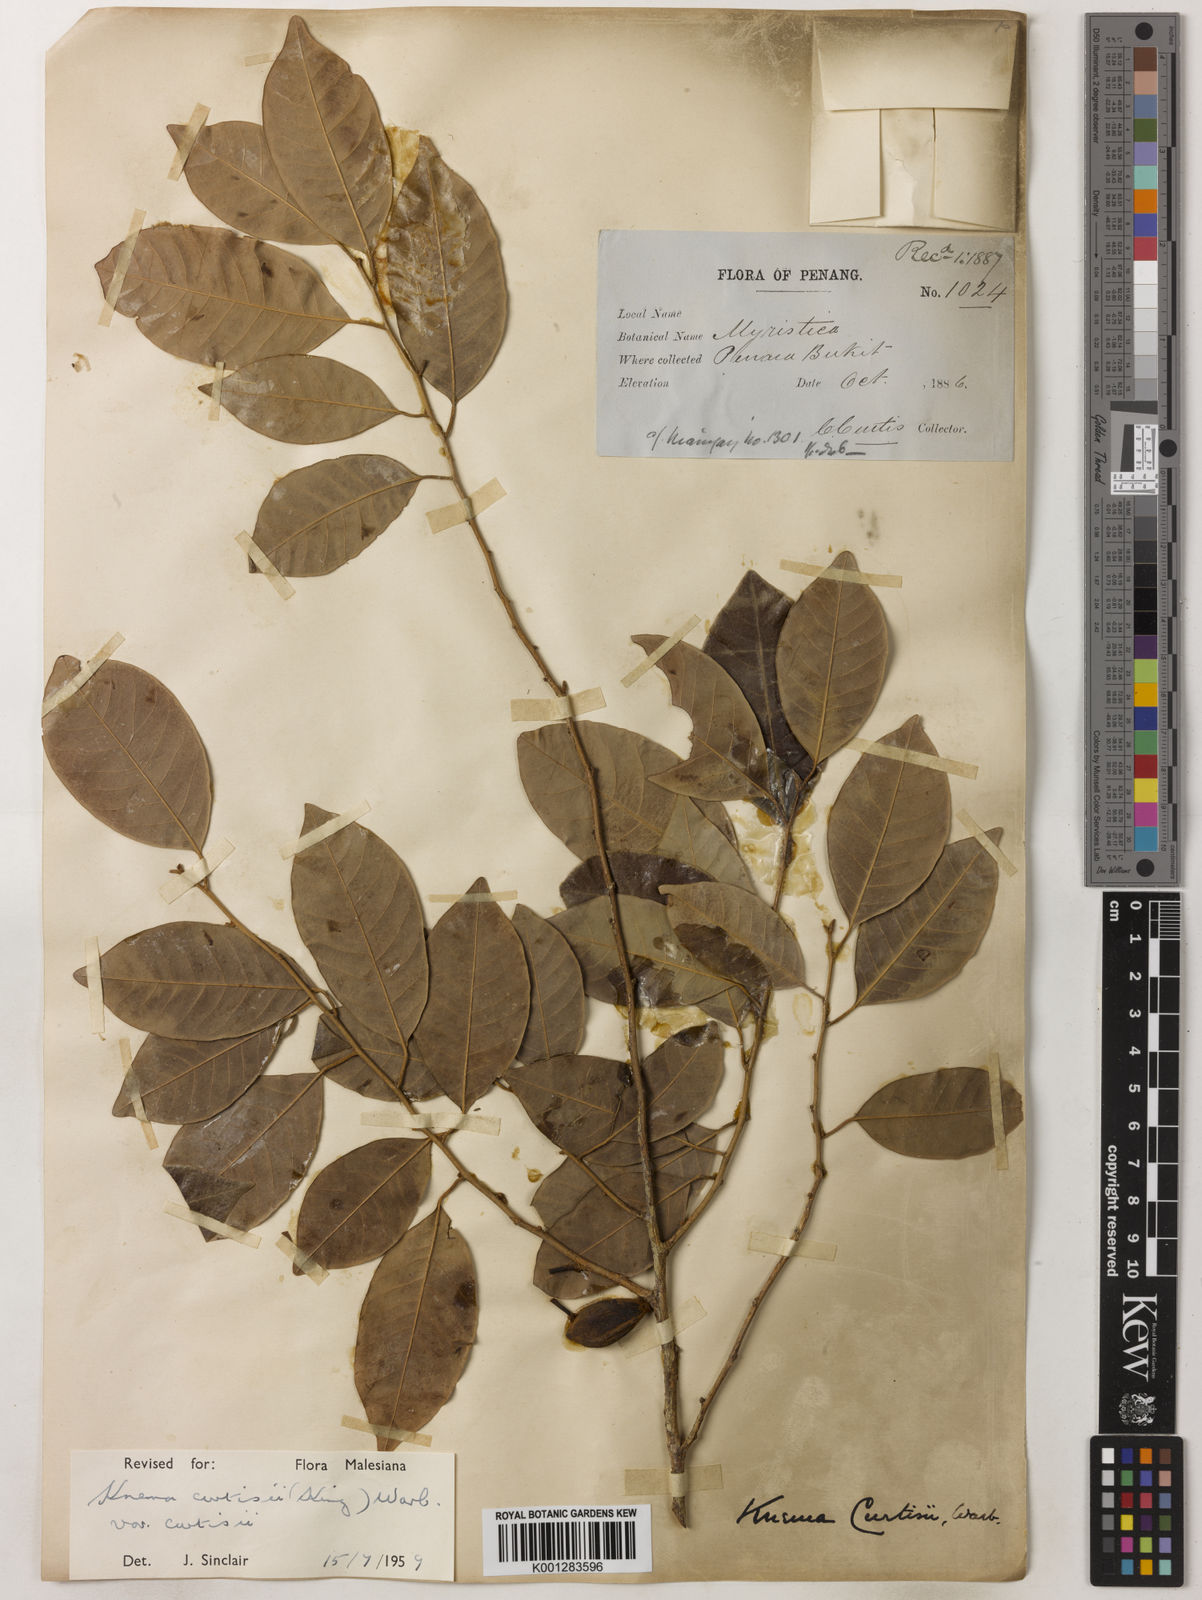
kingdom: Plantae
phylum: Tracheophyta
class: Magnoliopsida
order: Magnoliales
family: Myristicaceae
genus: Knema
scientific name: Knema curtisii
